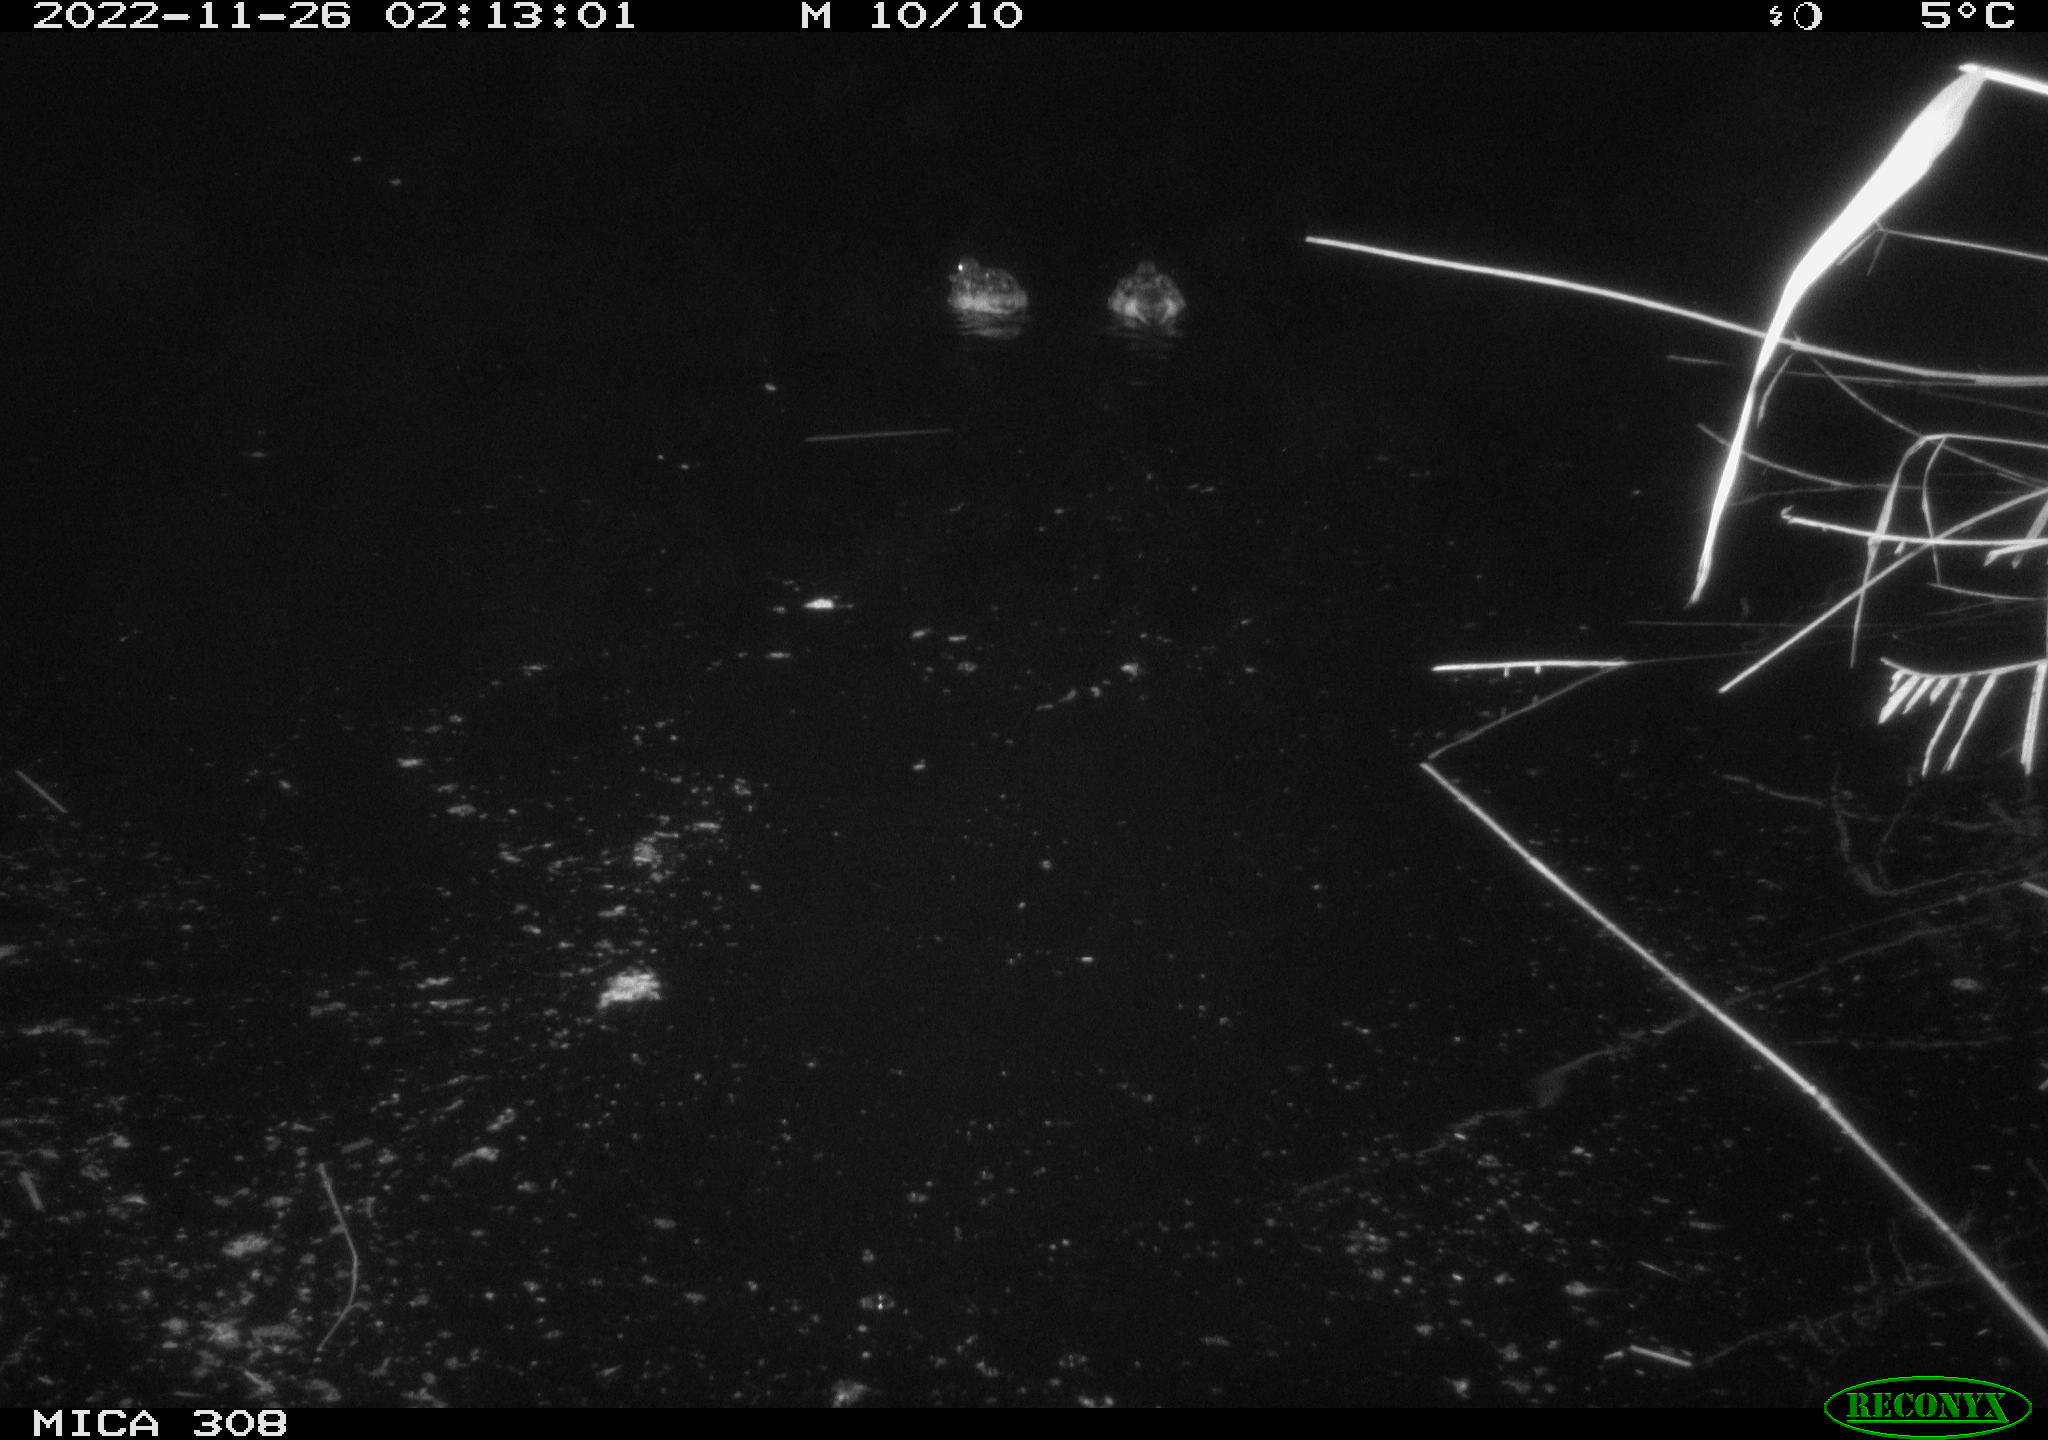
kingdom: Animalia
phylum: Chordata
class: Aves
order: Anseriformes
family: Anatidae
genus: Anas
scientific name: Anas
